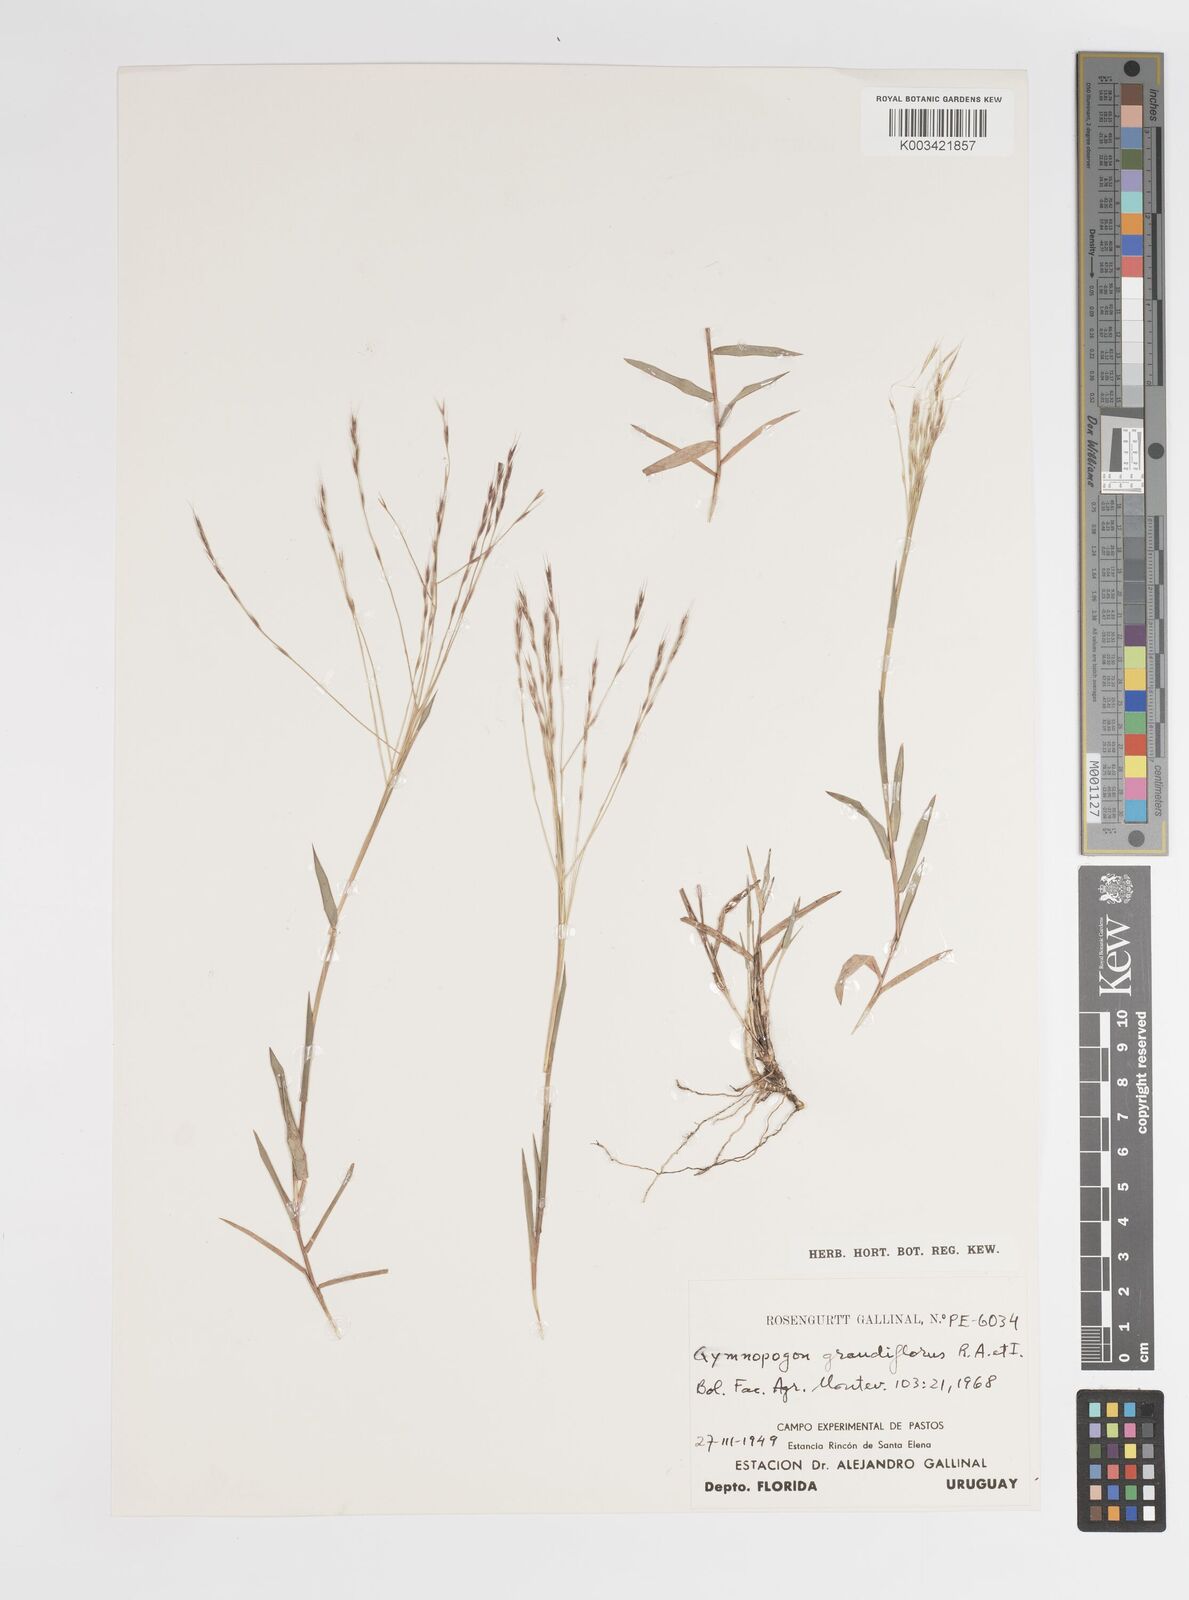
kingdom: Plantae
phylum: Tracheophyta
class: Liliopsida
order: Poales
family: Poaceae
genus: Gymnopogon
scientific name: Gymnopogon grandiflorus
